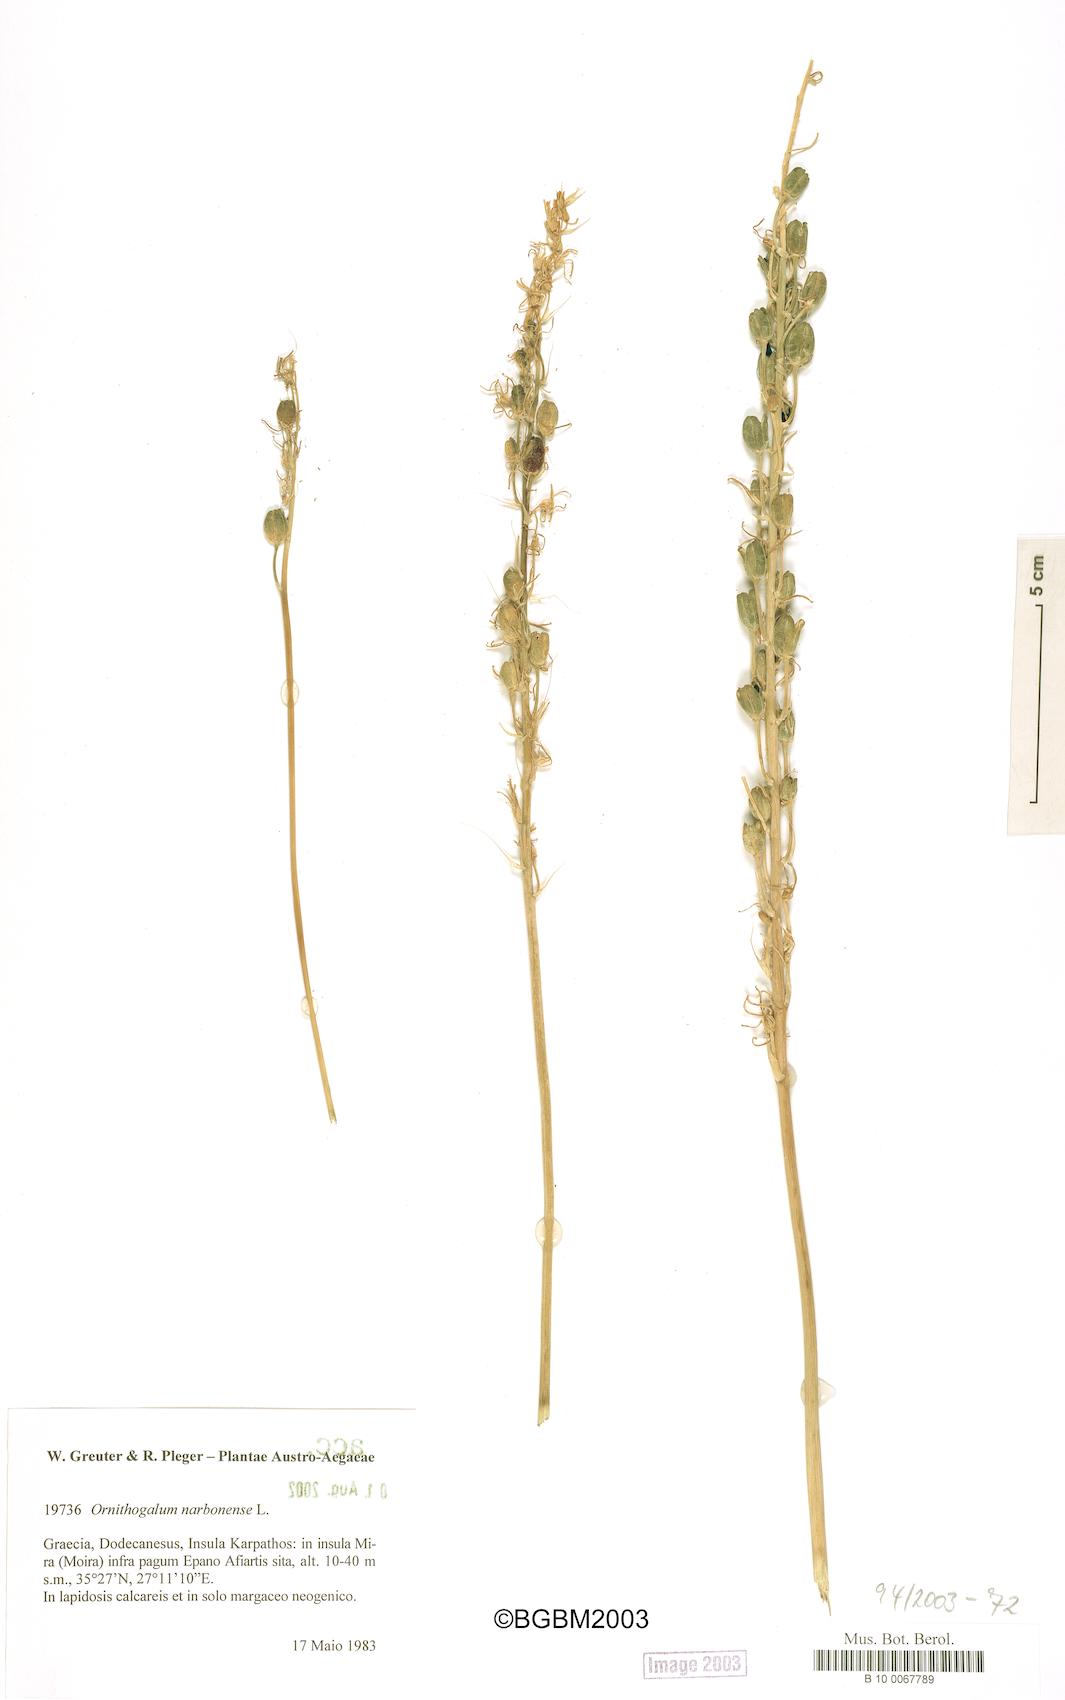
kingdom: Plantae
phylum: Tracheophyta
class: Liliopsida
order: Asparagales
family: Asparagaceae
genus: Ornithogalum
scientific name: Ornithogalum narbonense
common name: Bath-asparagus
